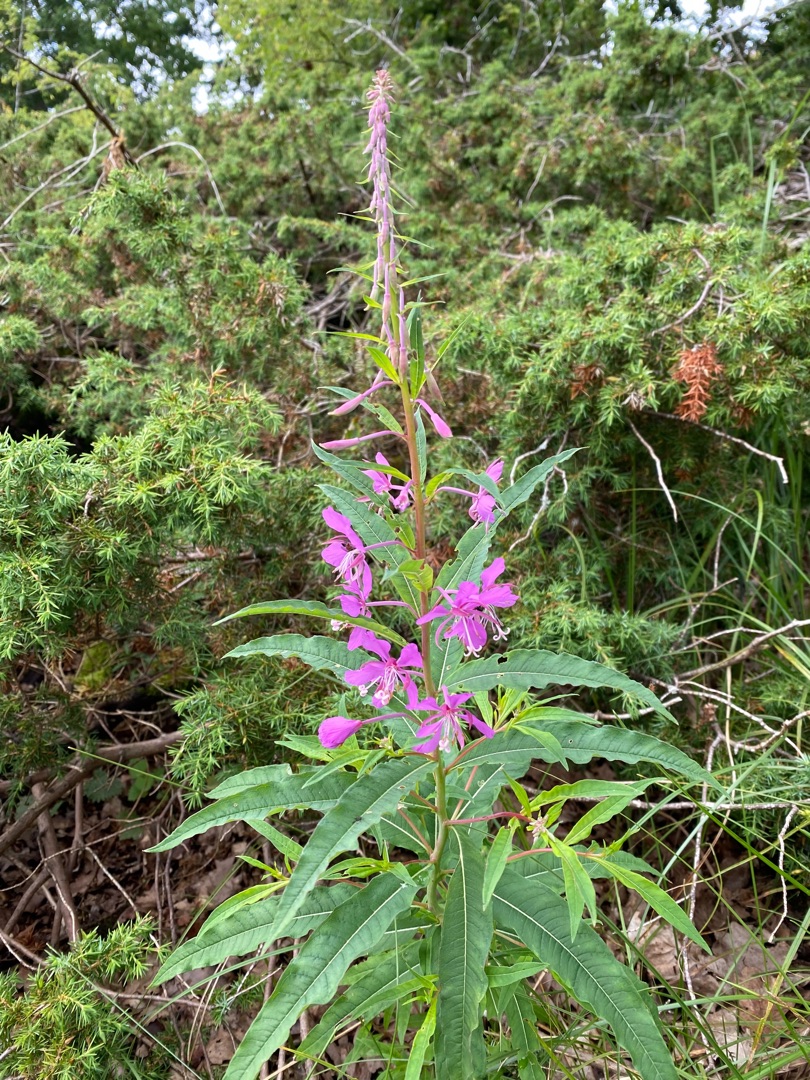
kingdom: Plantae
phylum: Tracheophyta
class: Magnoliopsida
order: Myrtales
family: Onagraceae
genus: Chamaenerion
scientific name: Chamaenerion angustifolium
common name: Gederams
